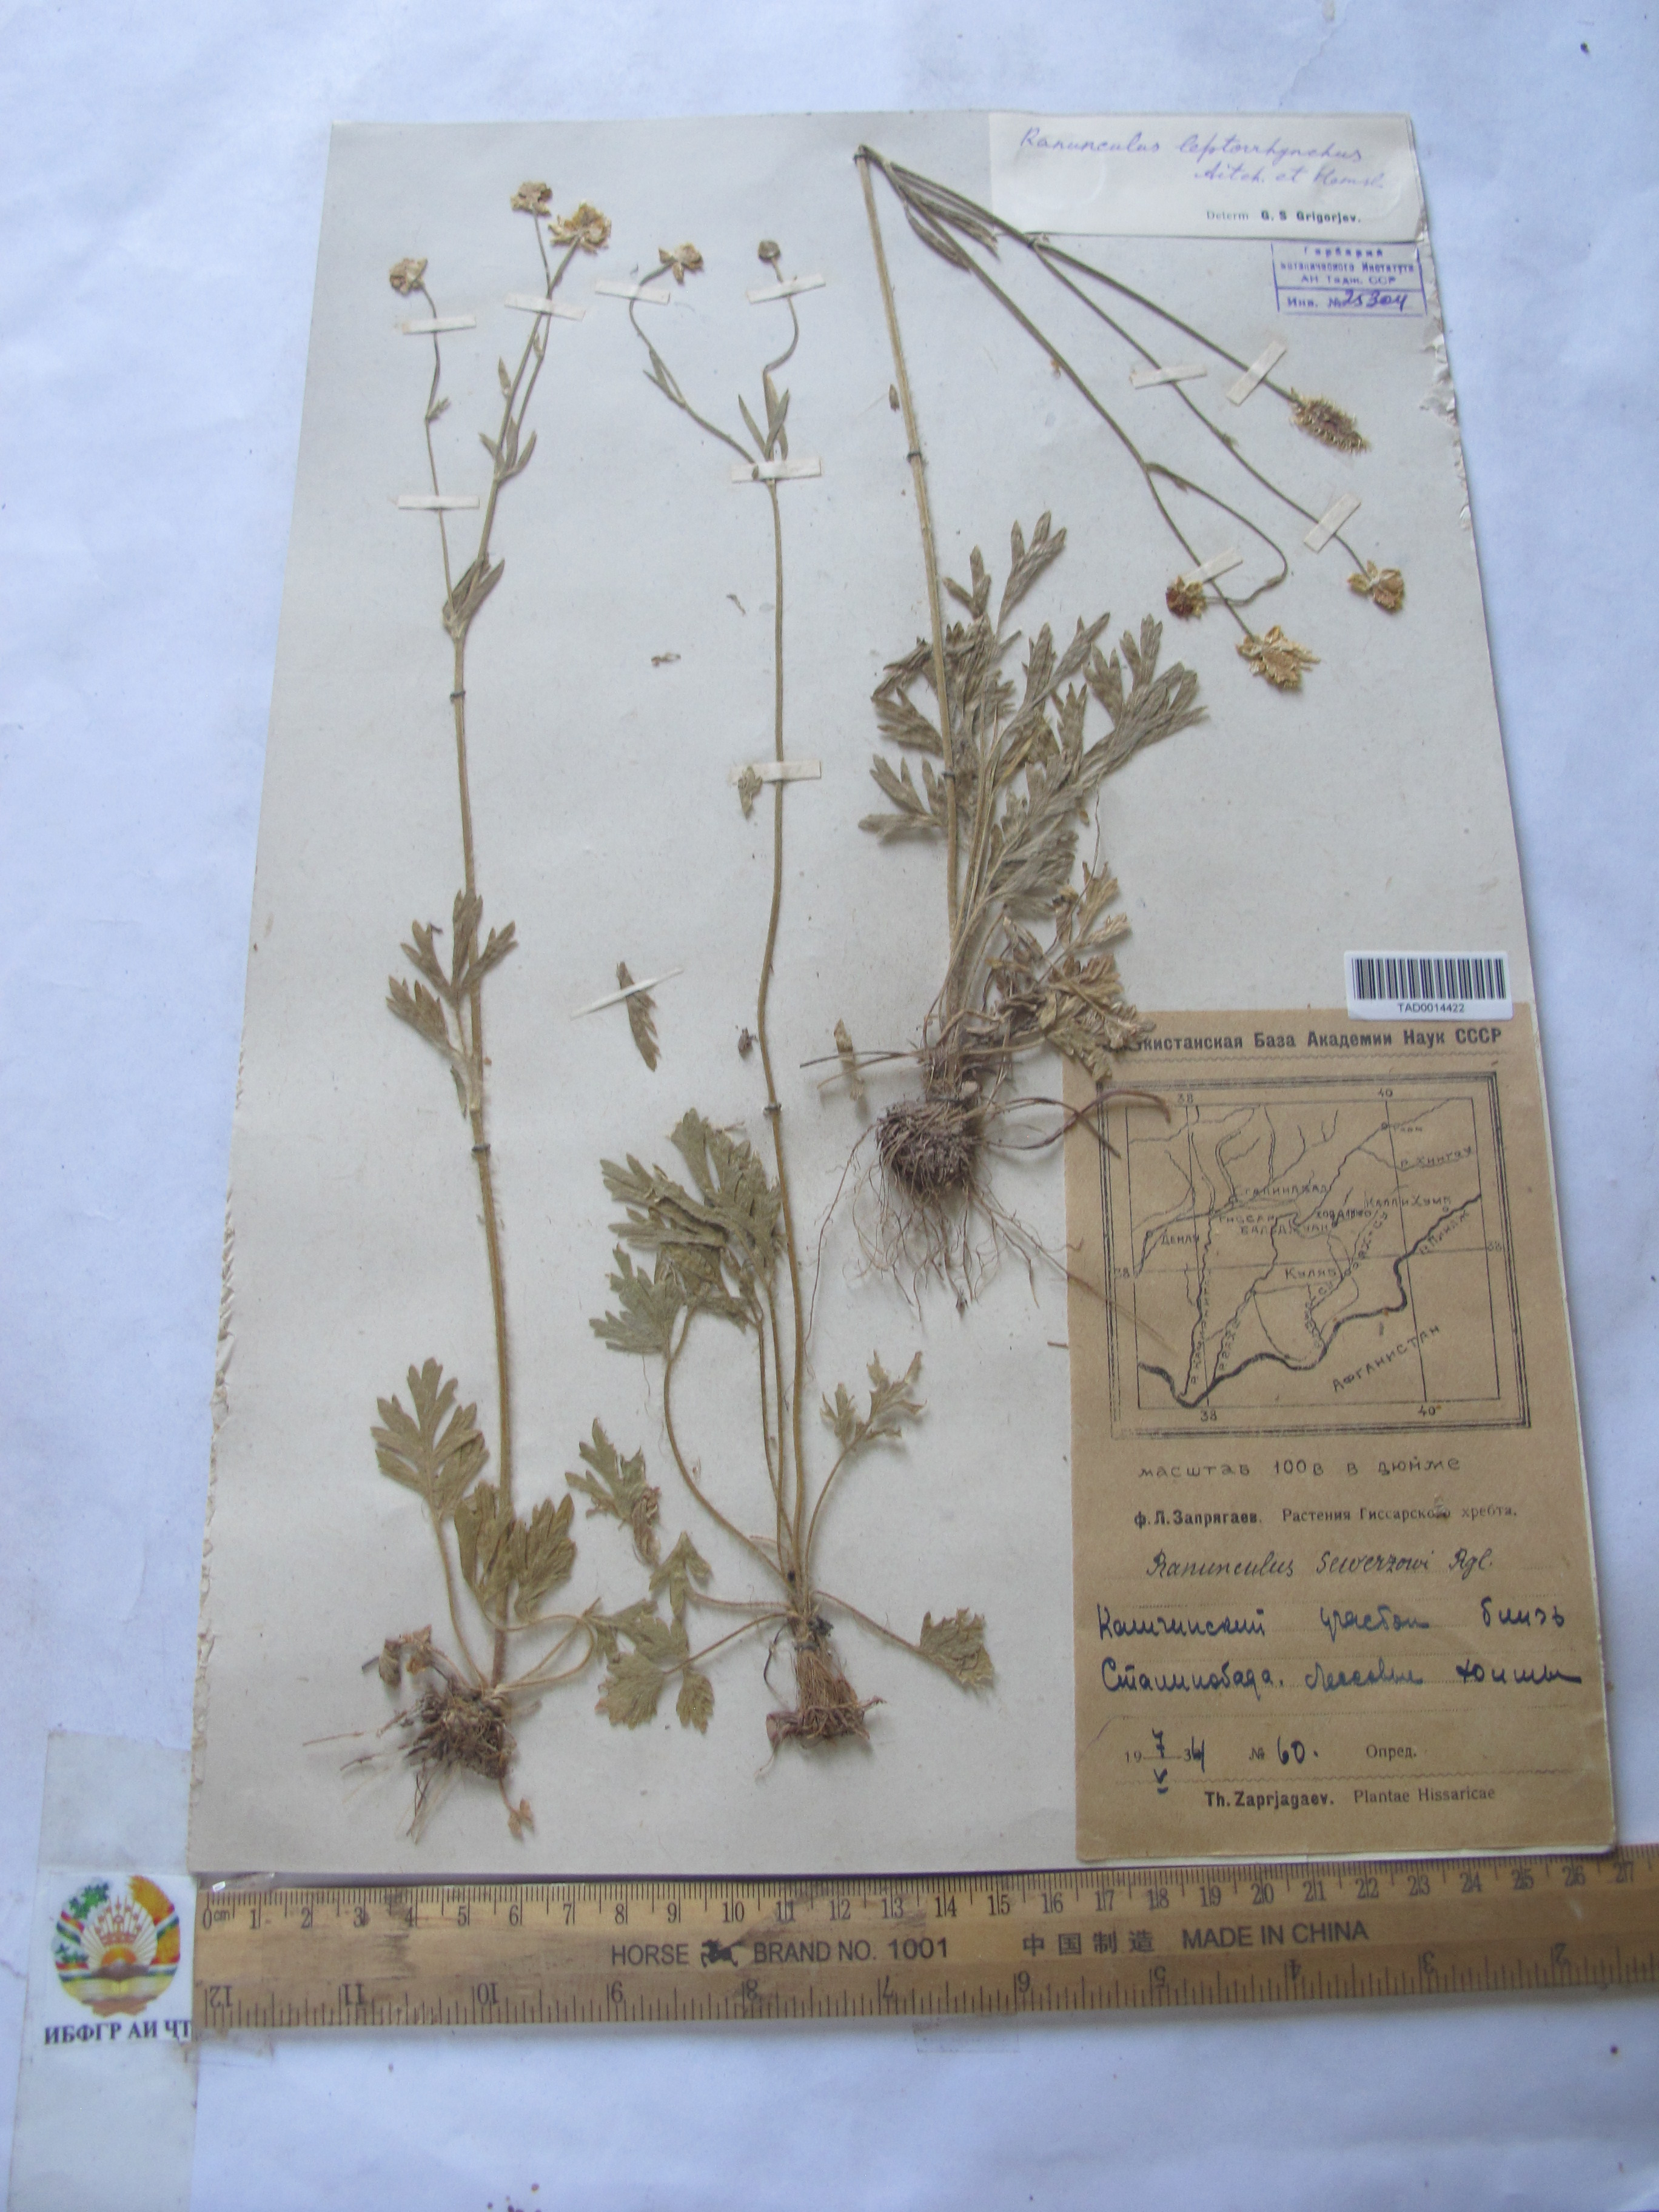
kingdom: Plantae
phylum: Tracheophyta
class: Magnoliopsida
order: Ranunculales
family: Ranunculaceae
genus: Ranunculus
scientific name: Ranunculus leptorrhynchus
